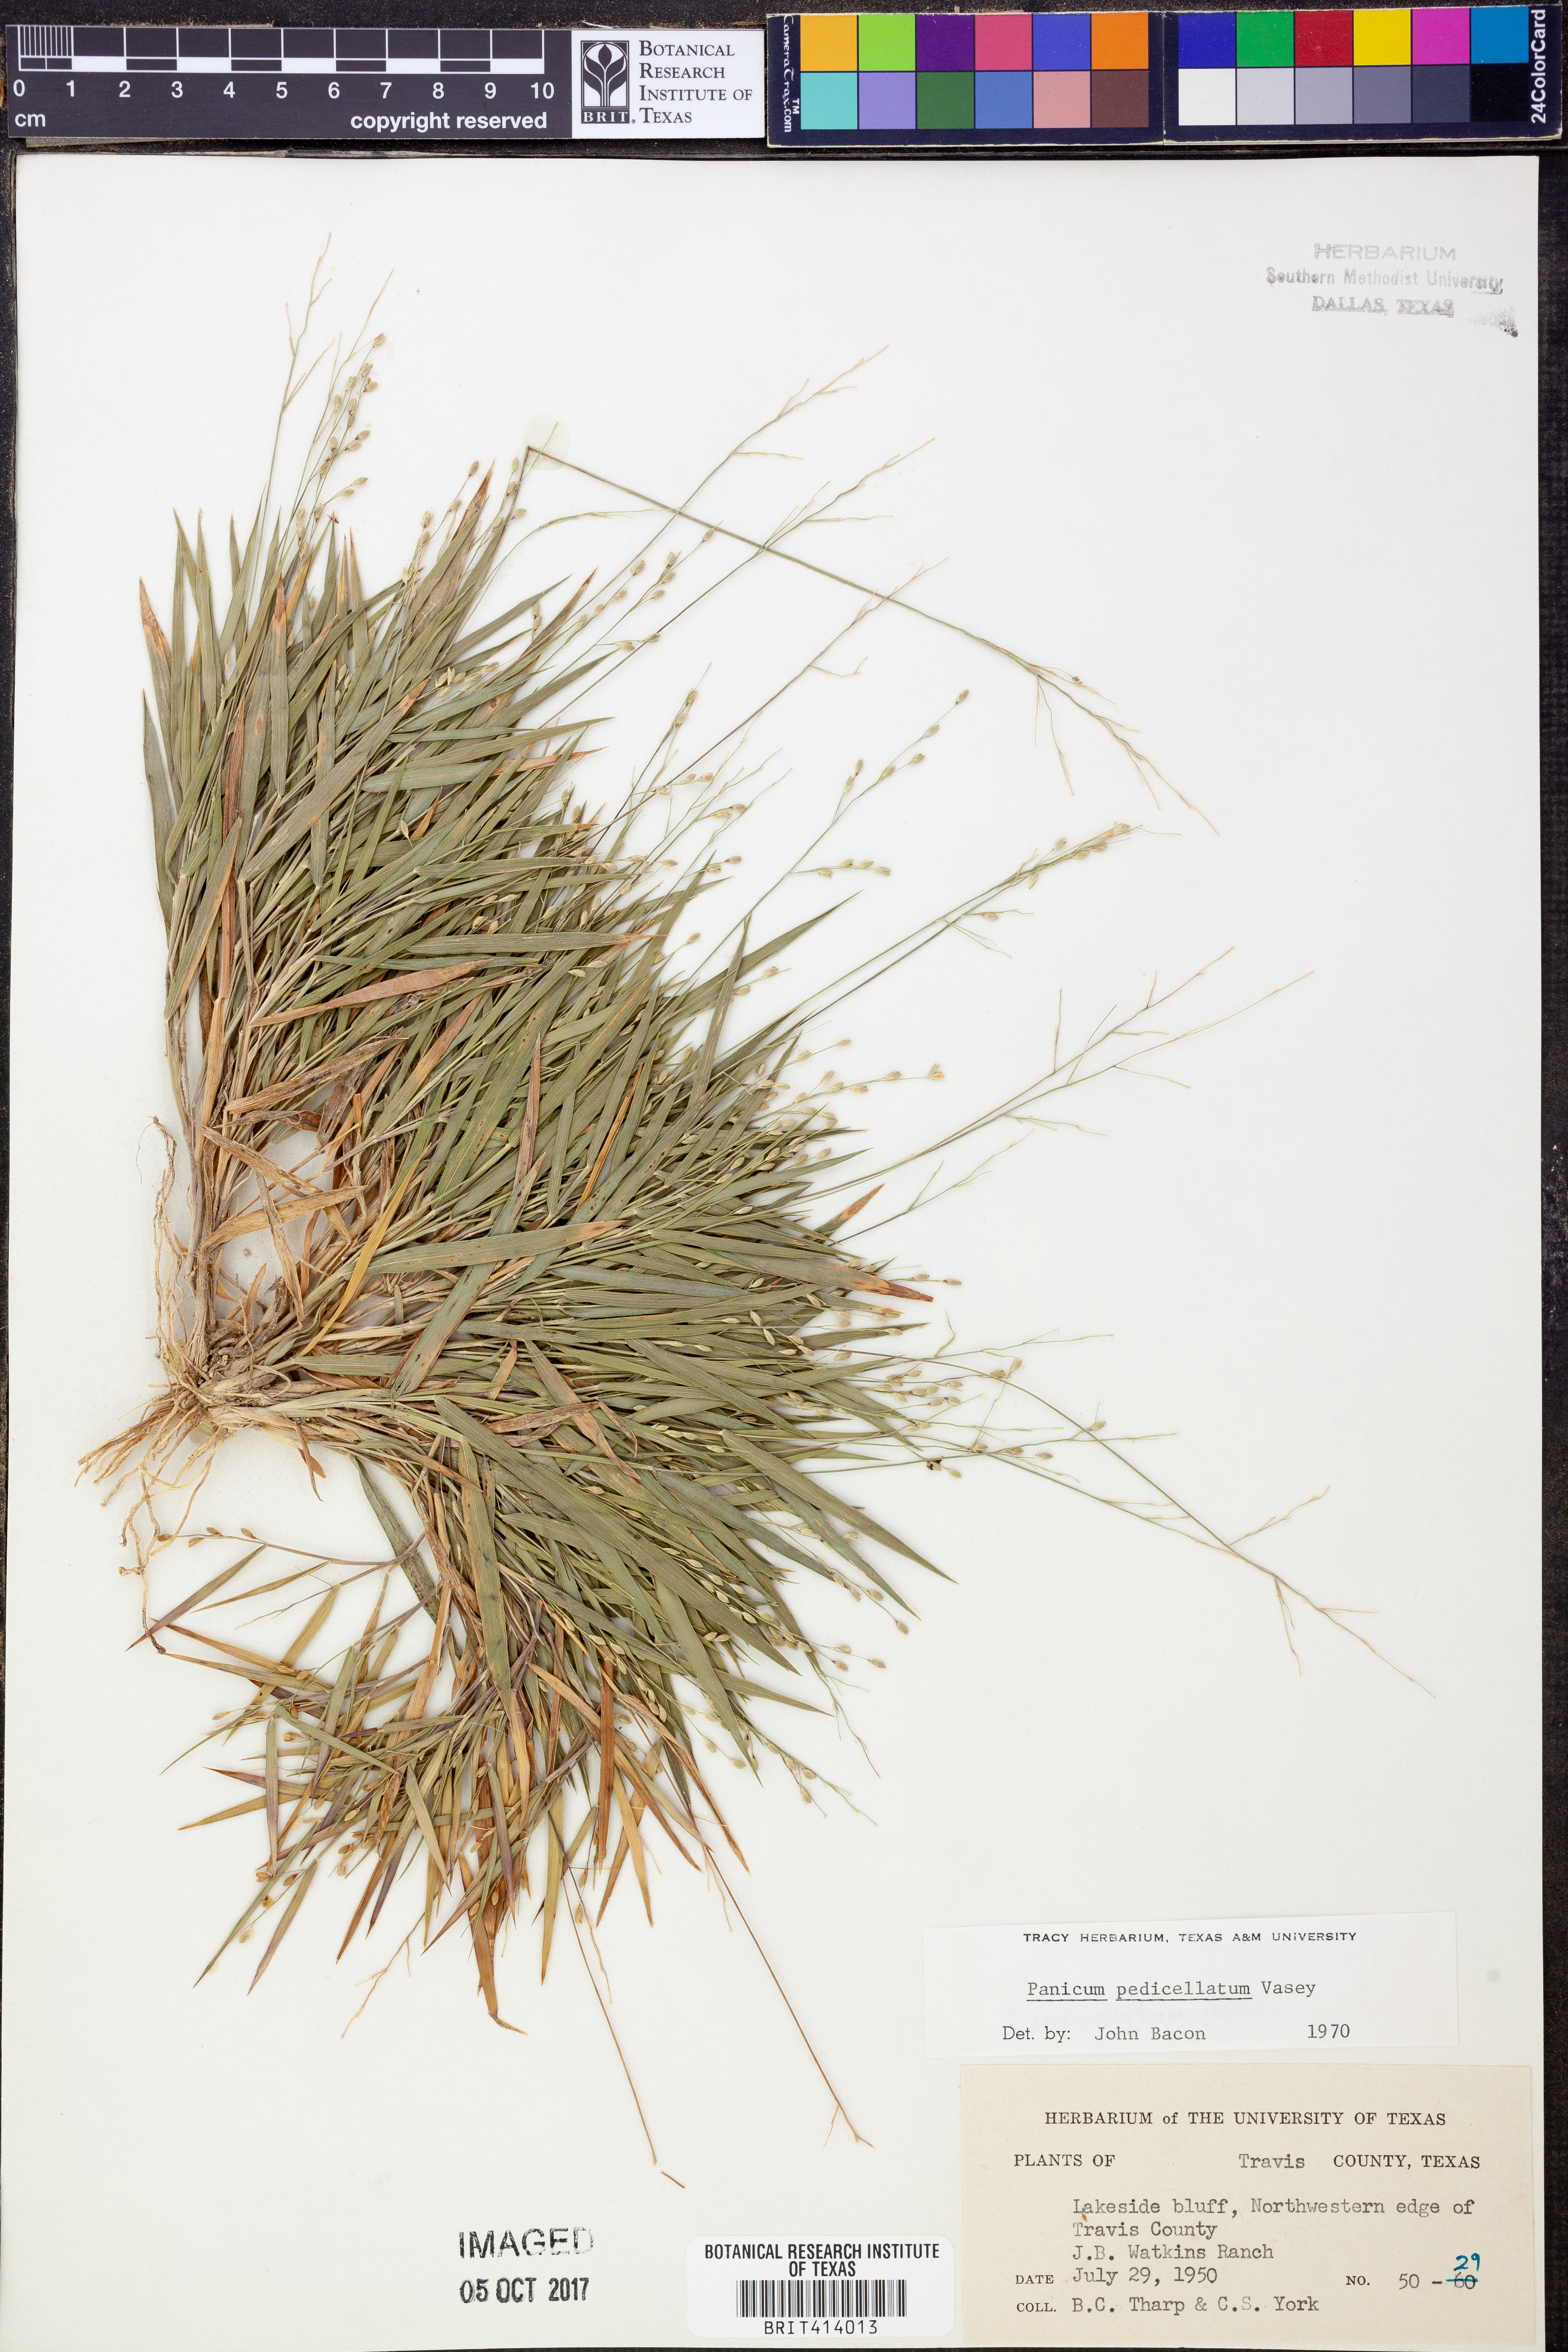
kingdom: Plantae
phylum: Tracheophyta
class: Liliopsida
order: Poales
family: Poaceae
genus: Dichanthelium
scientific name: Dichanthelium transiens
